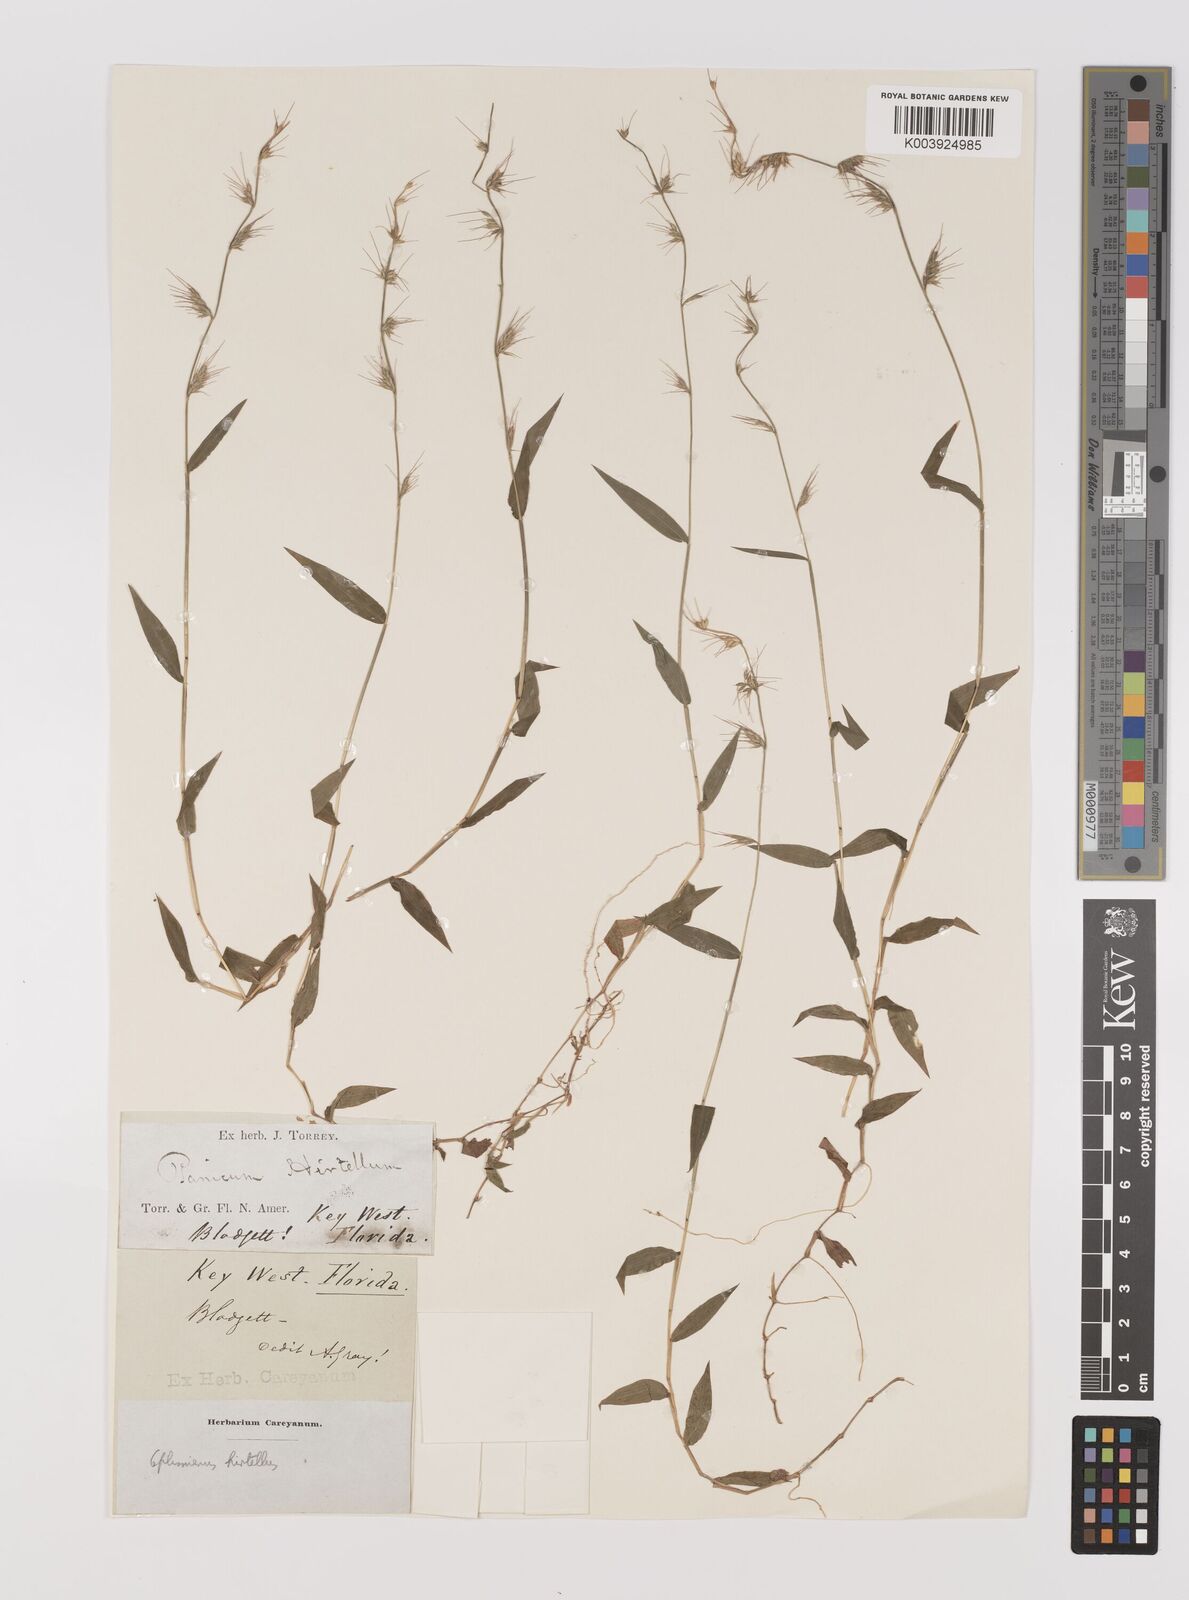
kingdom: Plantae
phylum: Tracheophyta
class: Liliopsida
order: Poales
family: Poaceae
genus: Oplismenus
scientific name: Oplismenus hirtellus
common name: Basketgrass
